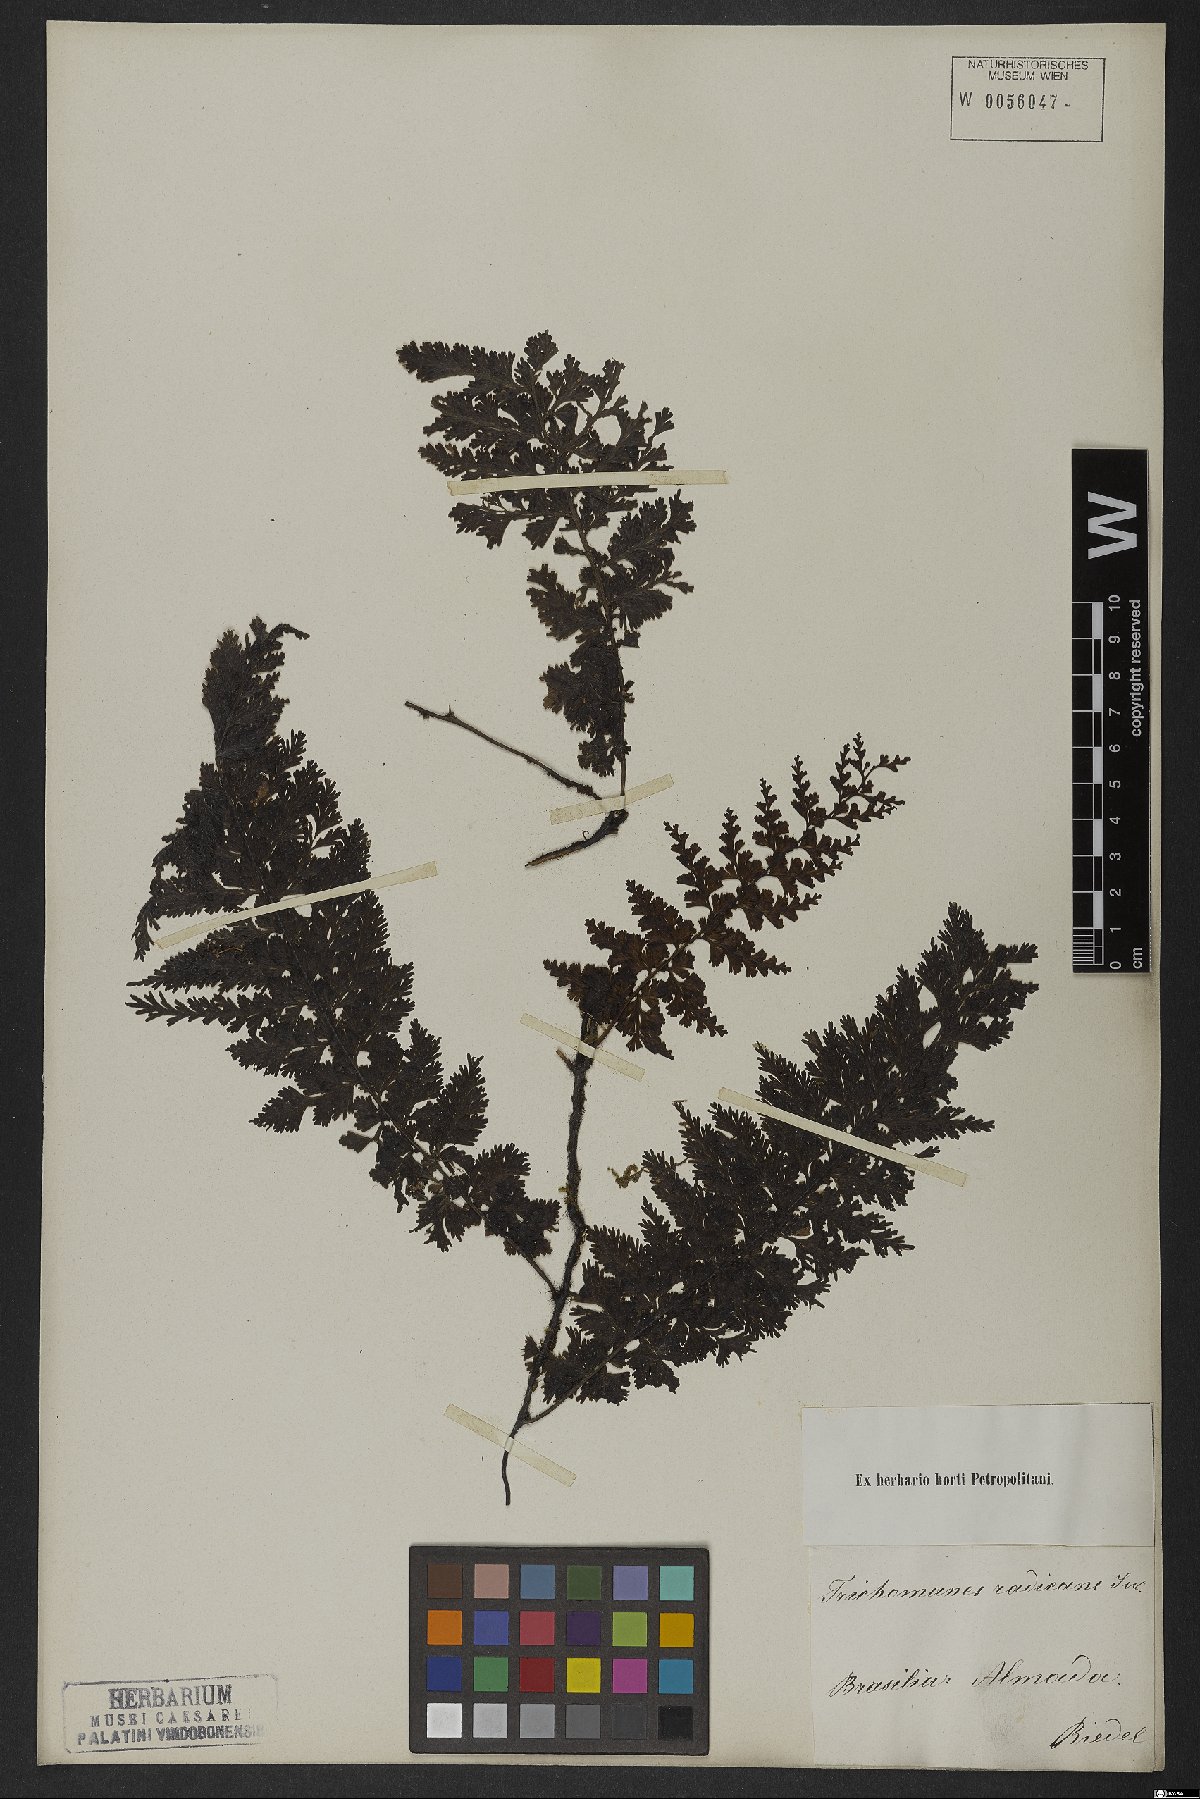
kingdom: Plantae
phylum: Tracheophyta
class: Polypodiopsida
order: Hymenophyllales
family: Hymenophyllaceae
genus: Vandenboschia
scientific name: Vandenboschia radicans
